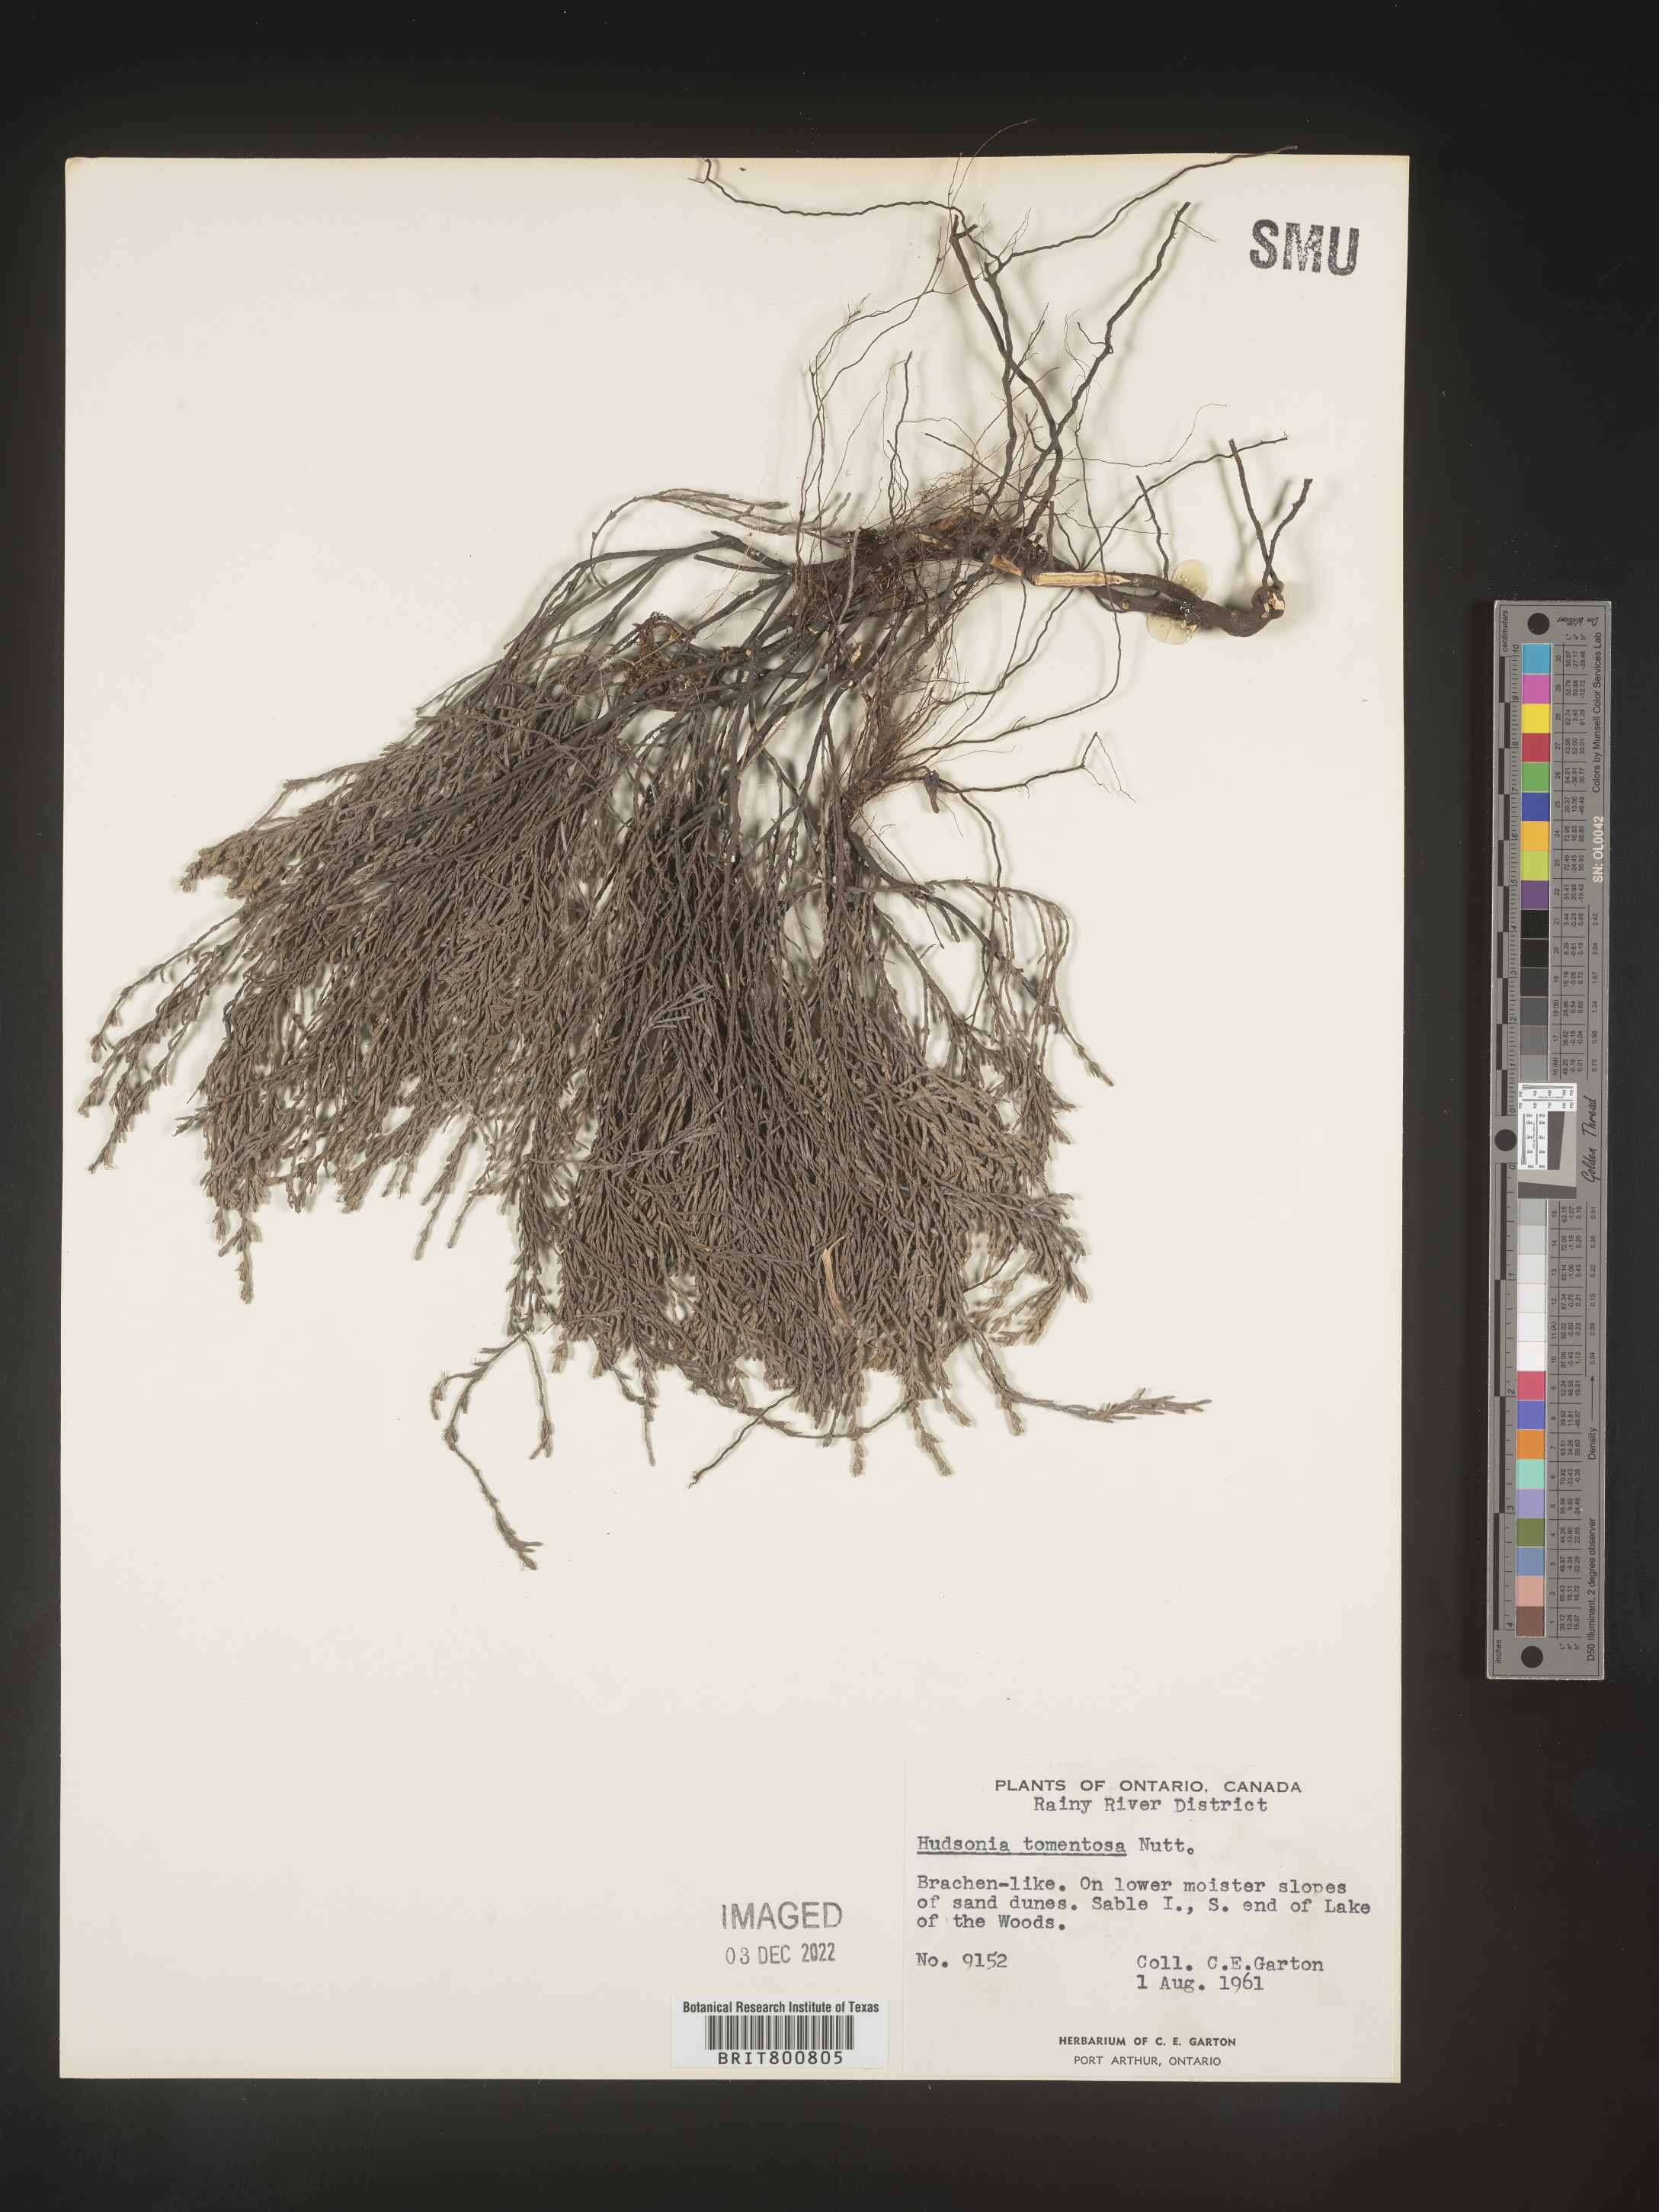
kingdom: Plantae
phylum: Tracheophyta
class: Magnoliopsida
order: Malvales
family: Cistaceae
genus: Hudsonia
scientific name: Hudsonia tomentosa
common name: Beach-heath
